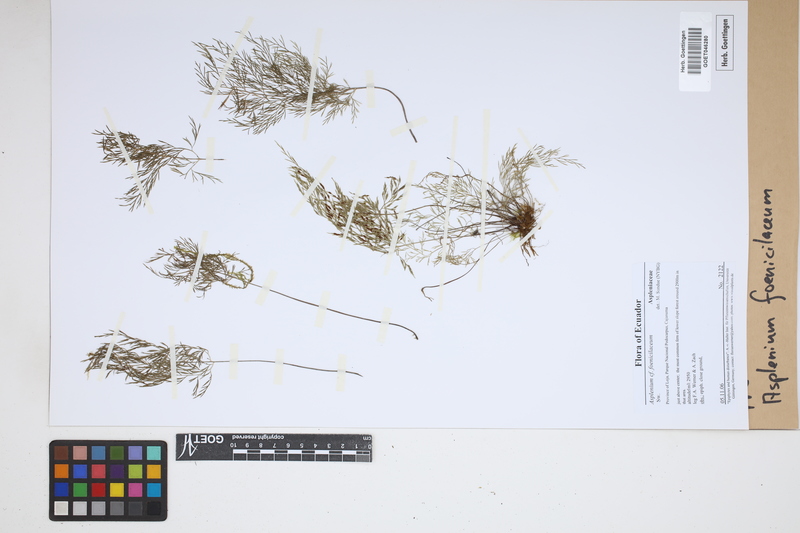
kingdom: Plantae
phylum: Tracheophyta
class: Polypodiopsida
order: Polypodiales
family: Aspleniaceae
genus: Asplenium
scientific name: Asplenium fragrans
